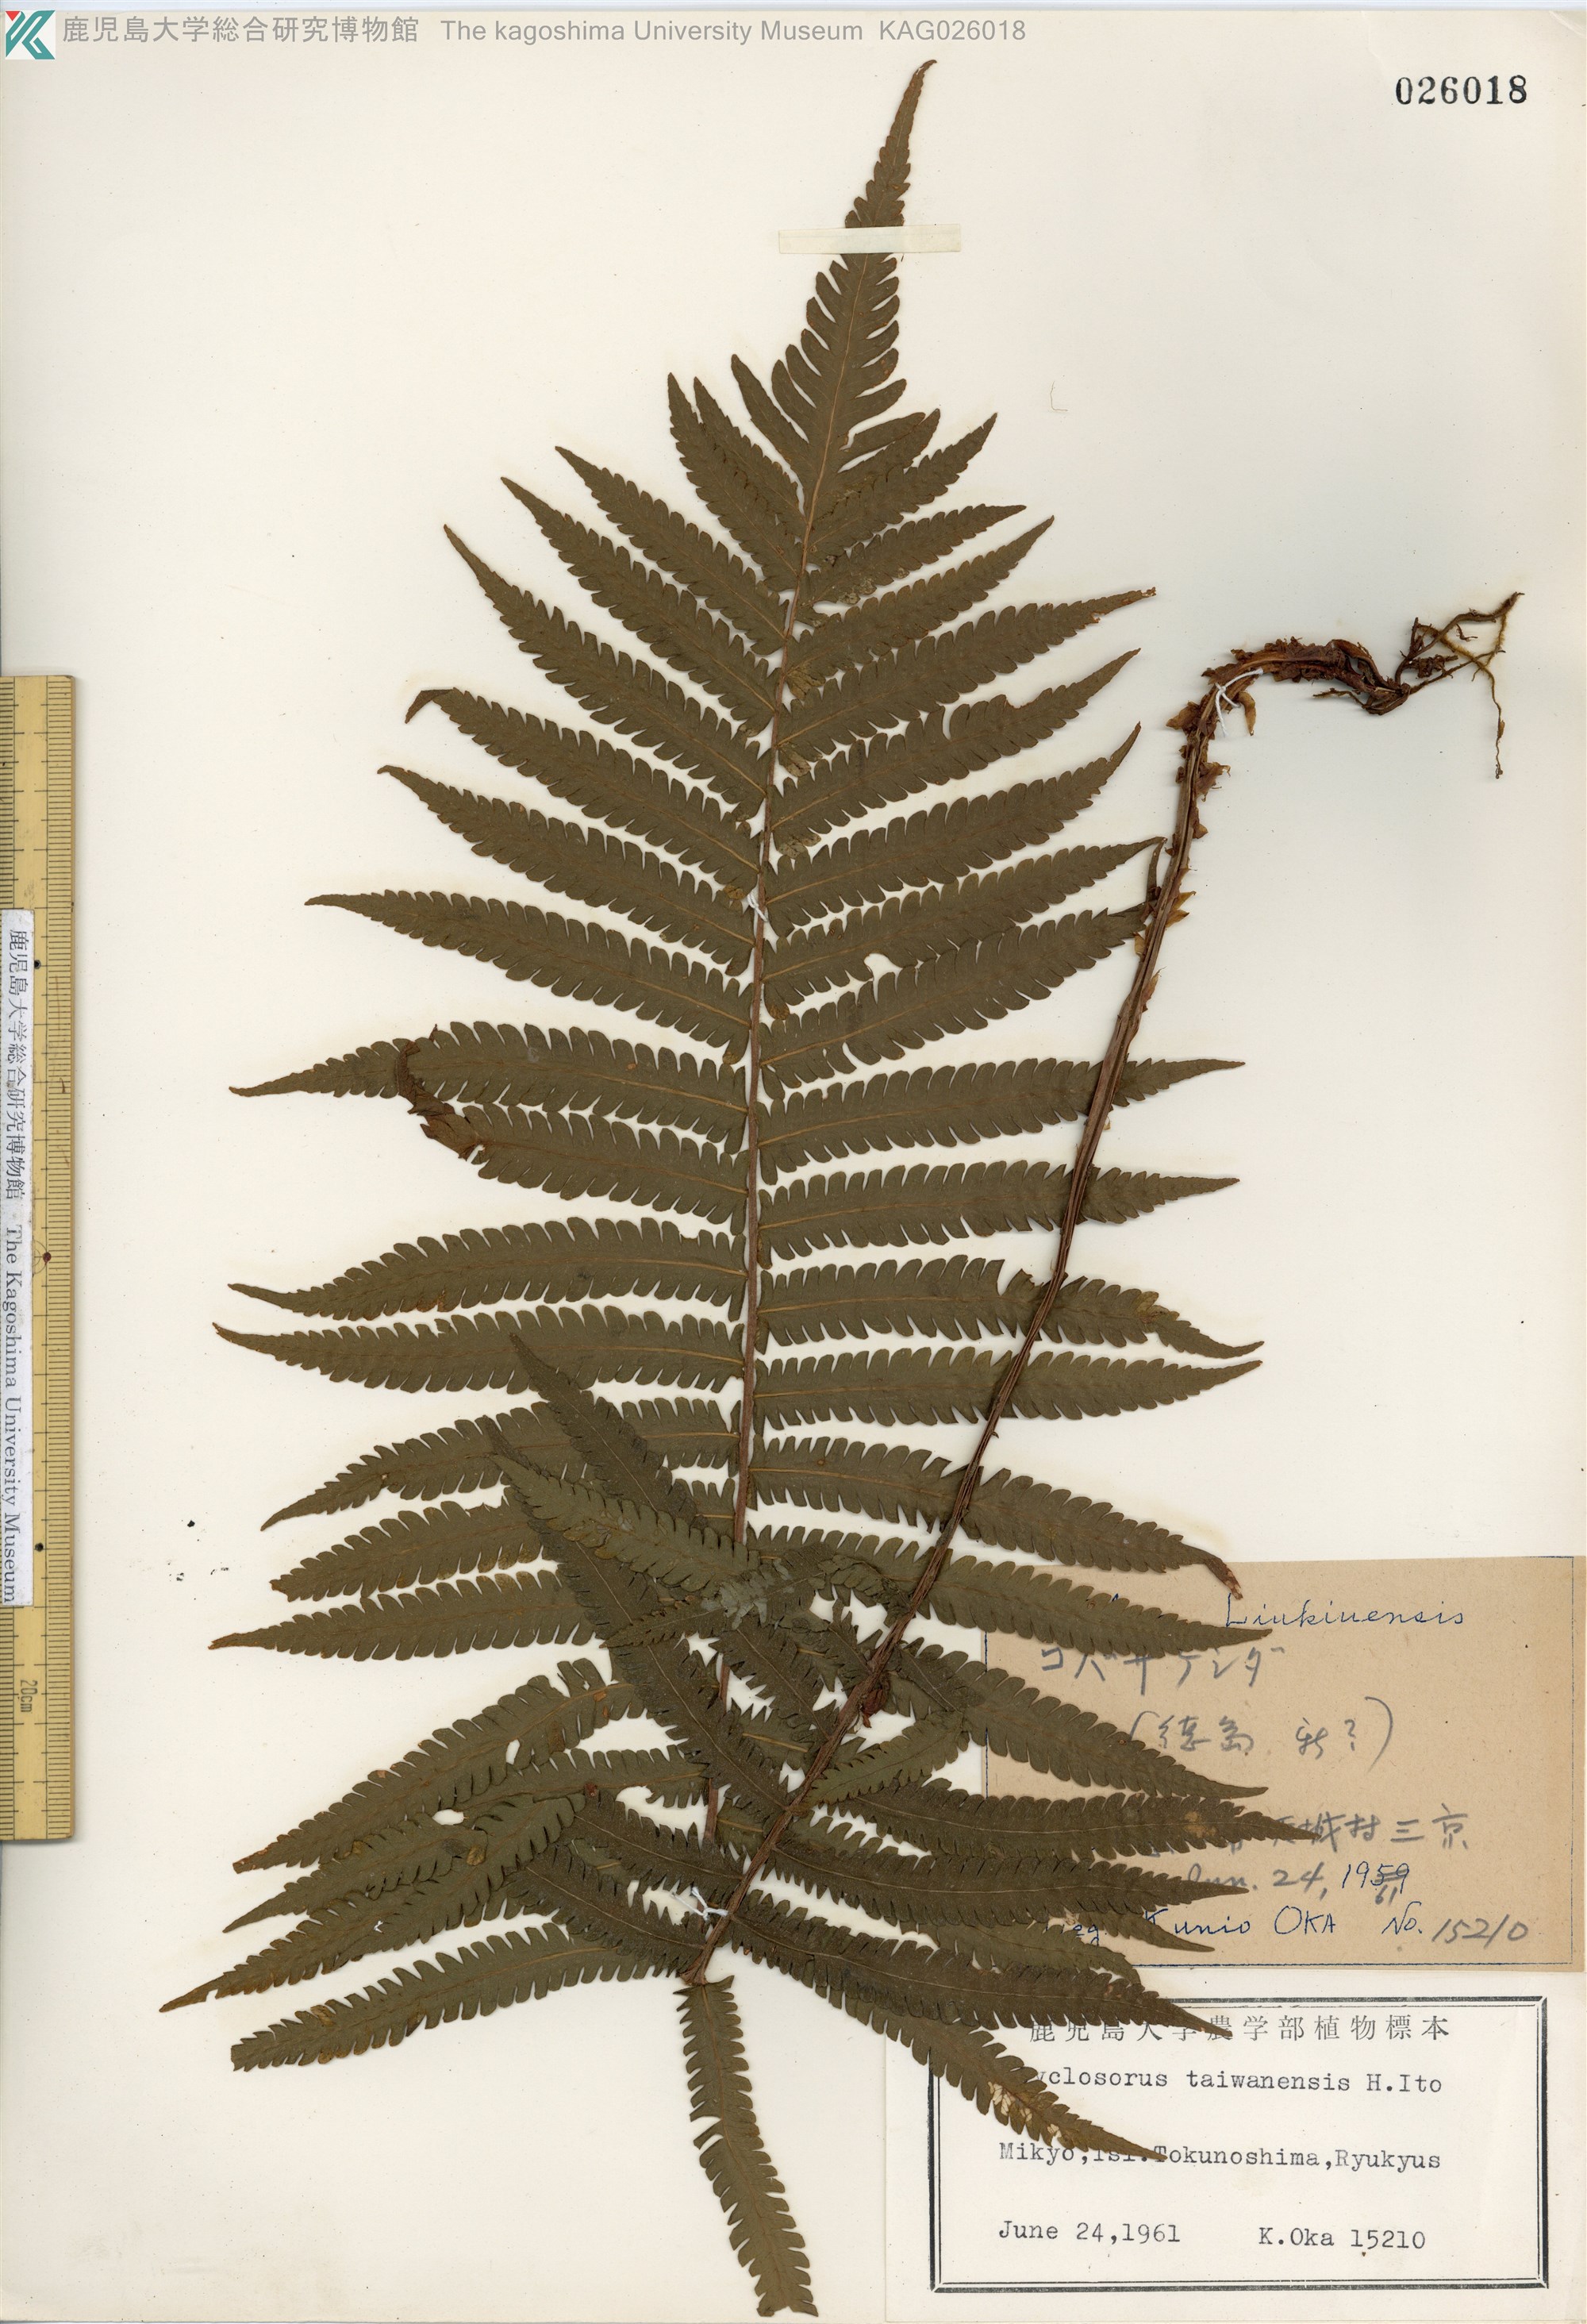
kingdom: Plantae
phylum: Tracheophyta
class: Polypodiopsida
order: Polypodiales
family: Thelypteridaceae
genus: Sphaerostephanos
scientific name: Sphaerostephanos taiwanensis
